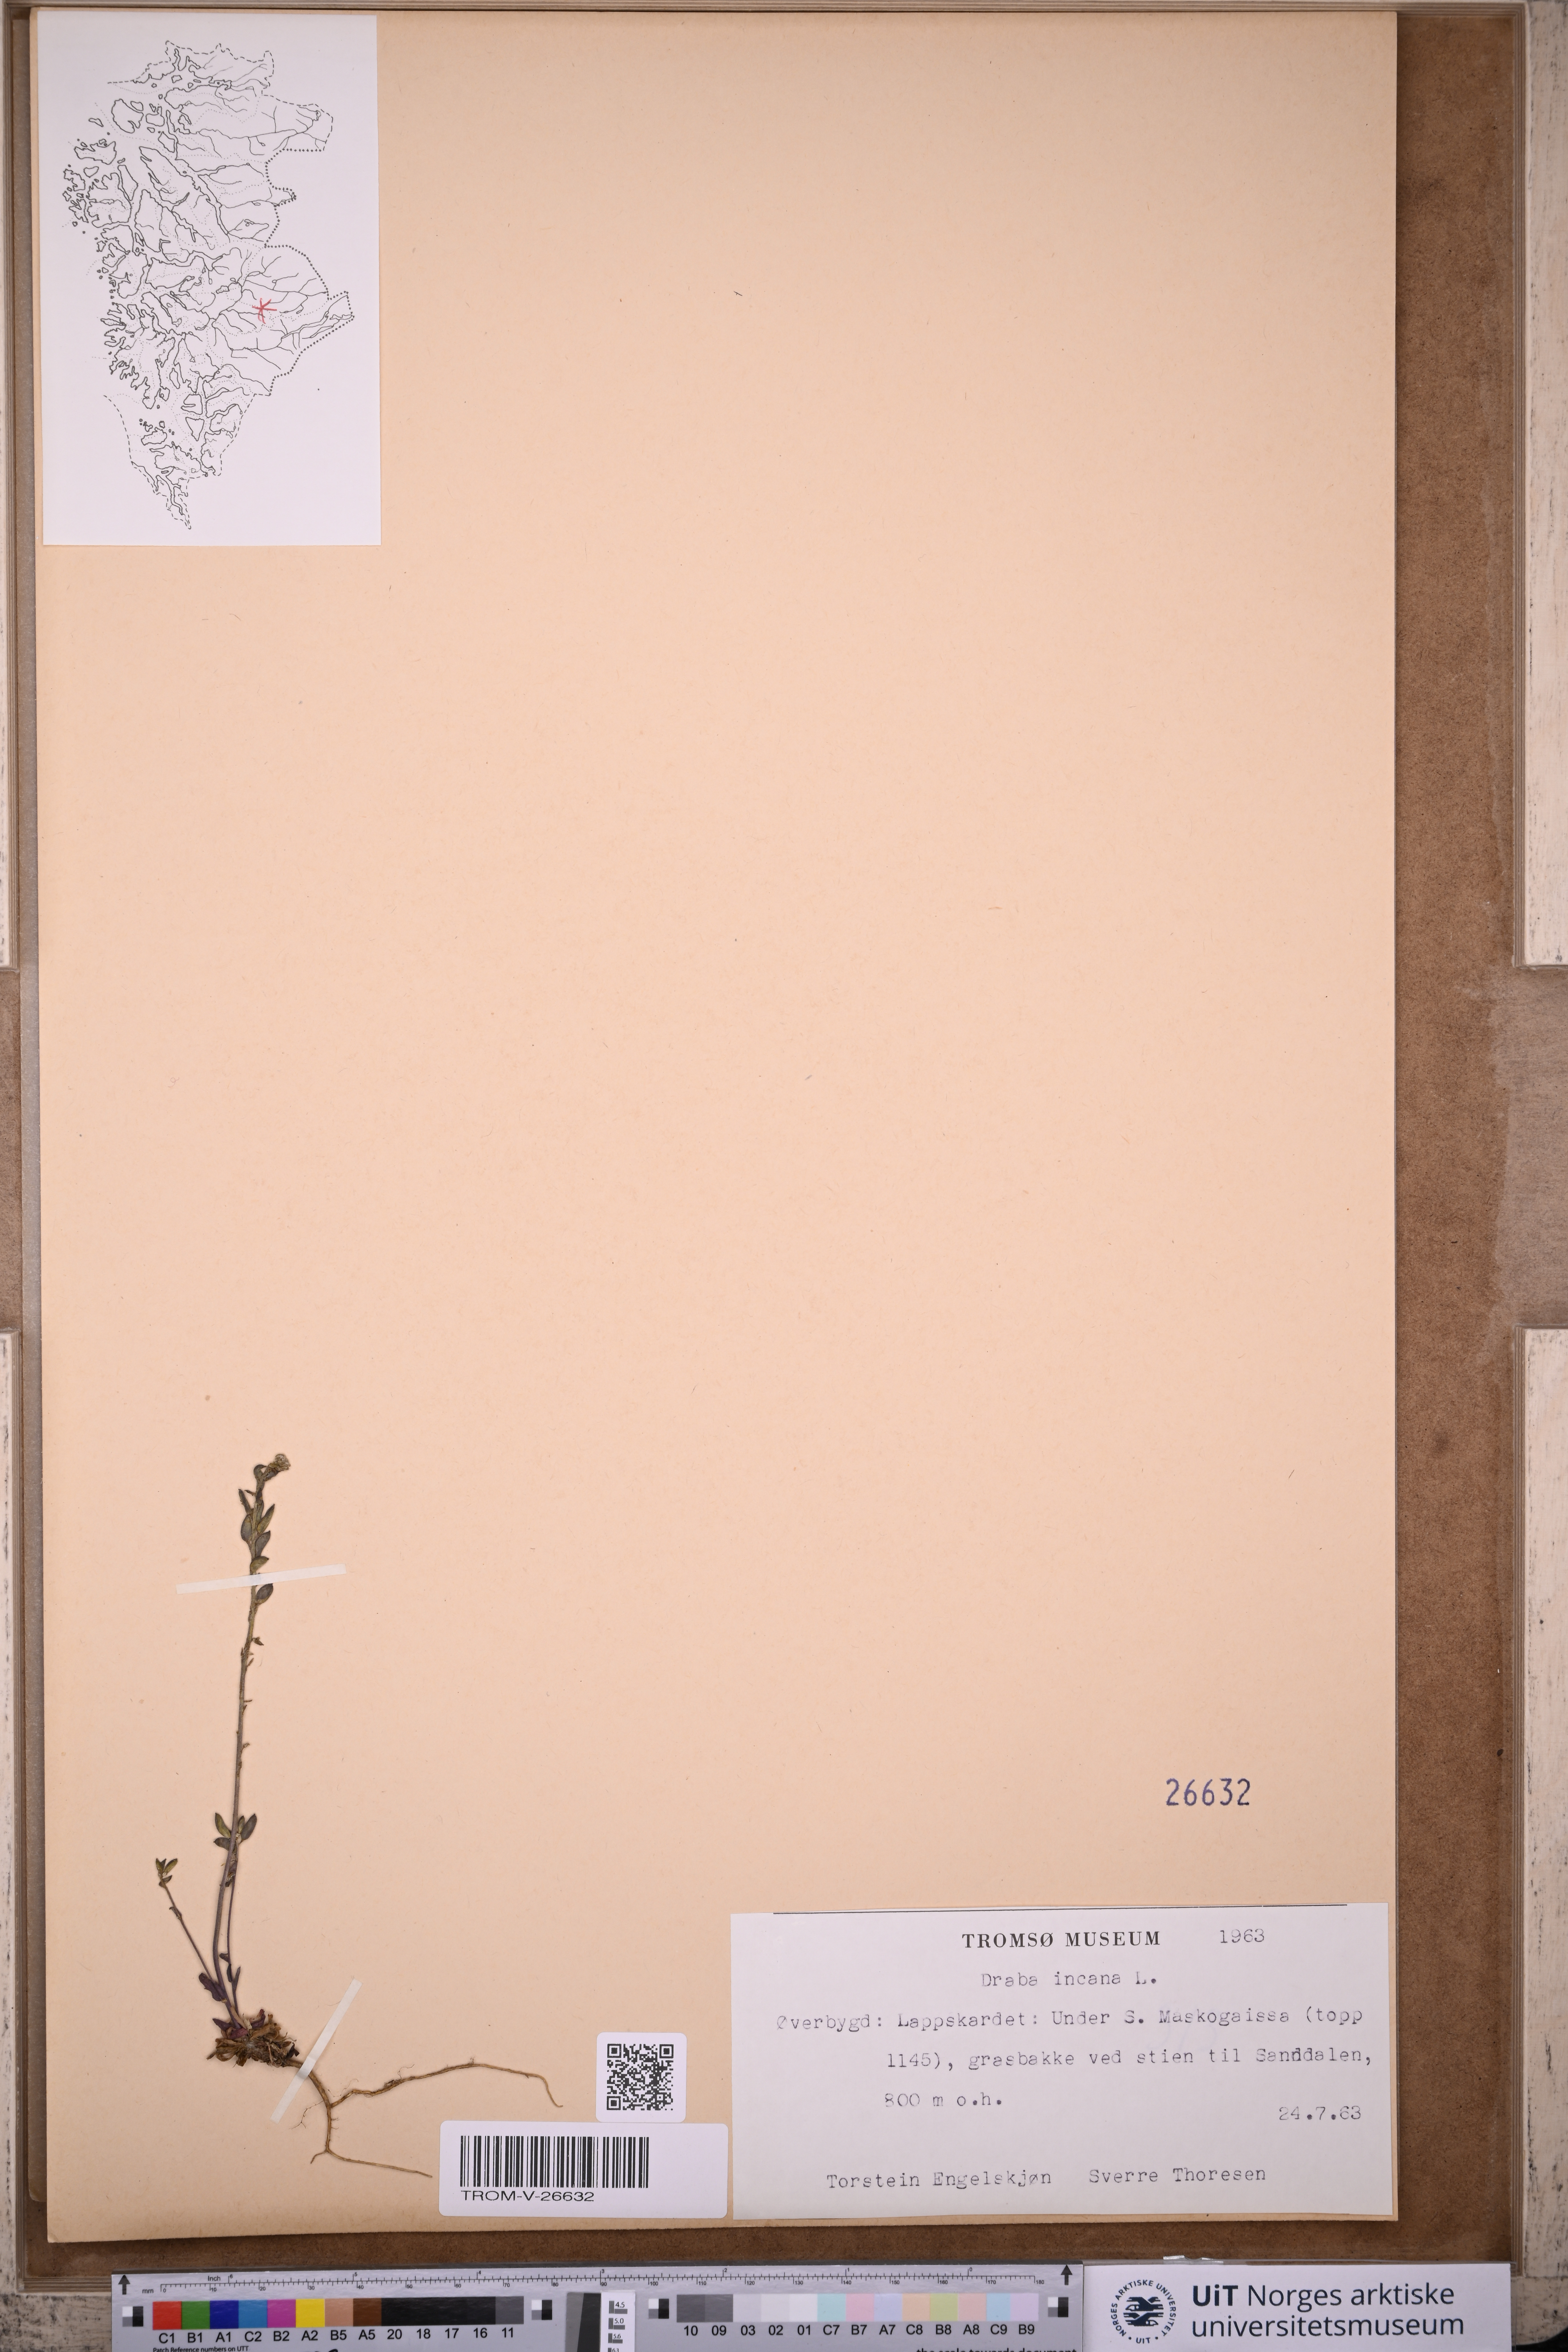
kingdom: Plantae
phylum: Tracheophyta
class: Magnoliopsida
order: Brassicales
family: Brassicaceae
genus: Draba
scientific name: Draba incana
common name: Hoary whitlow-grass
